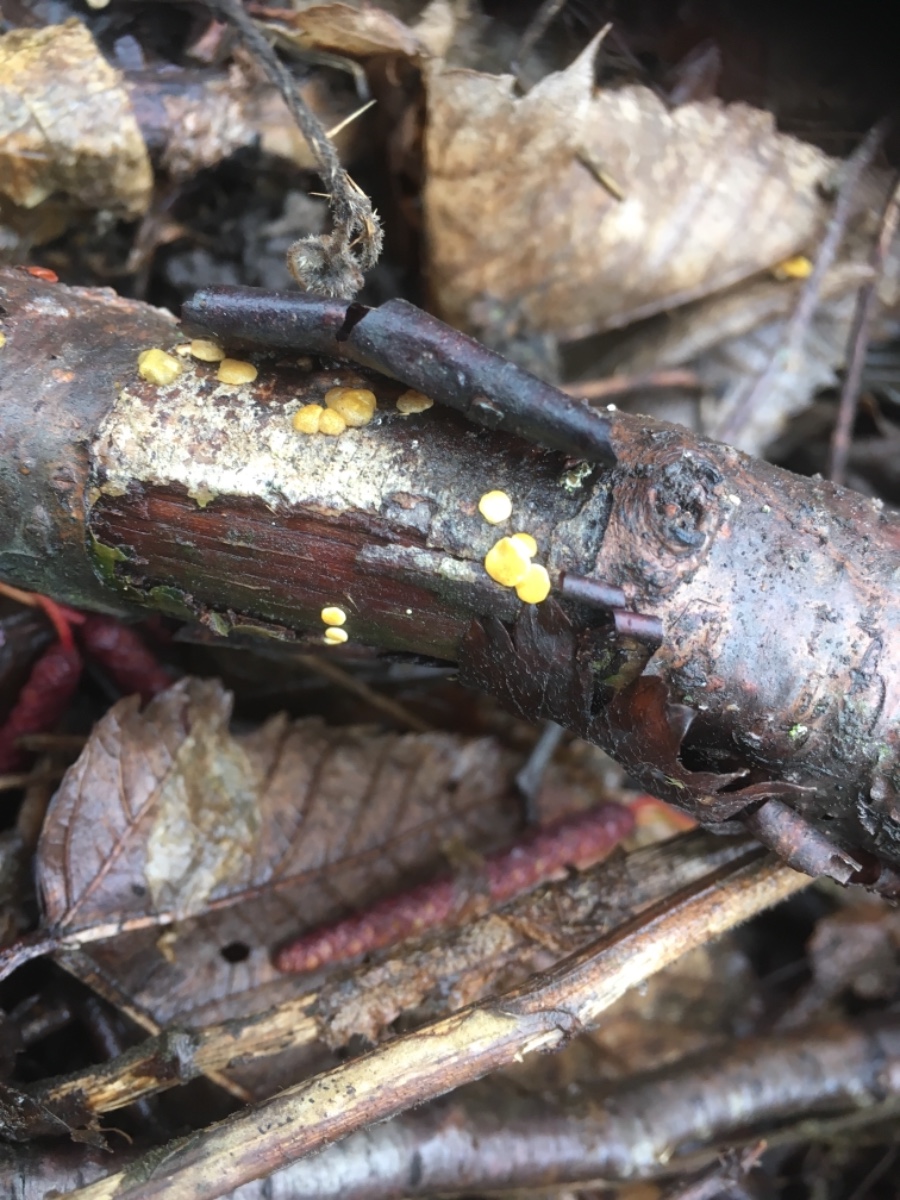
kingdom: Fungi
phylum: Ascomycota
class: Sordariomycetes
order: Hypocreales
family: Hypocreaceae
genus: Trichoderma
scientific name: Trichoderma
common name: kødkerne
